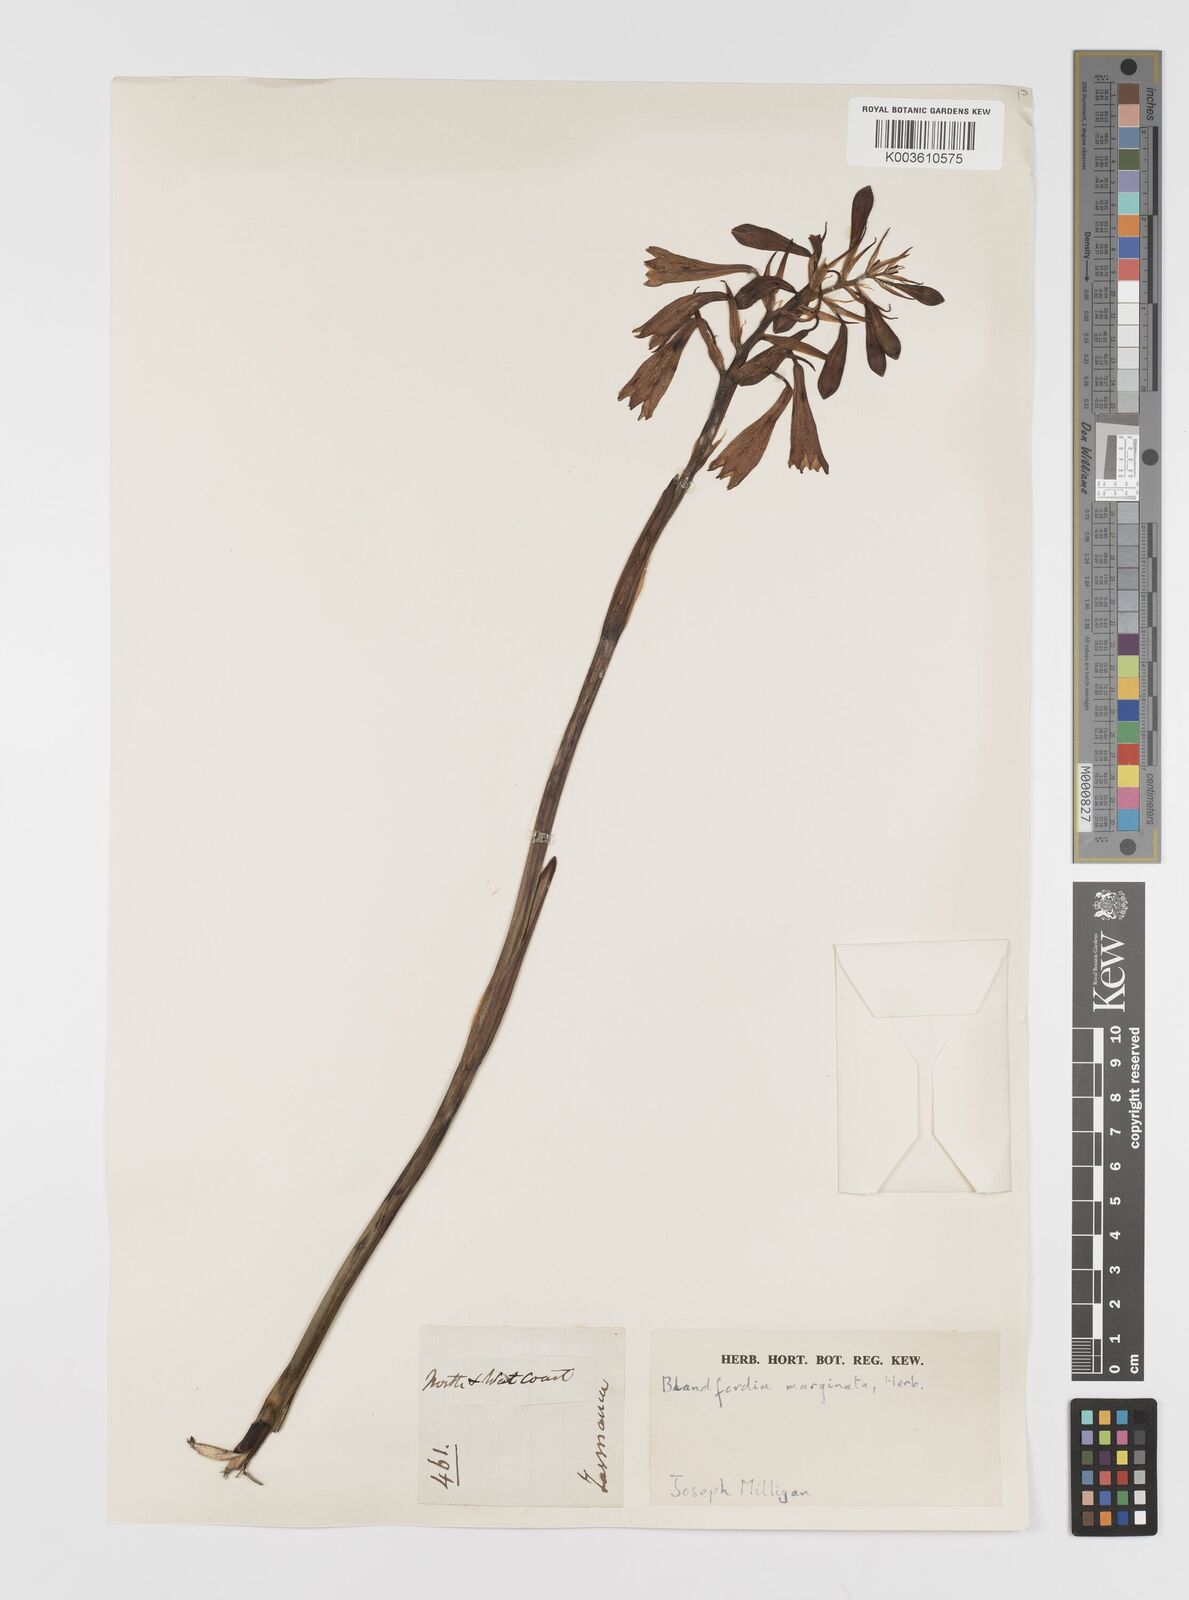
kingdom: Plantae
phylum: Tracheophyta
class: Liliopsida
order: Asparagales
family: Blandfordiaceae
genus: Blandfordia
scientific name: Blandfordia punicea
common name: Tasmanian christmas-bell
